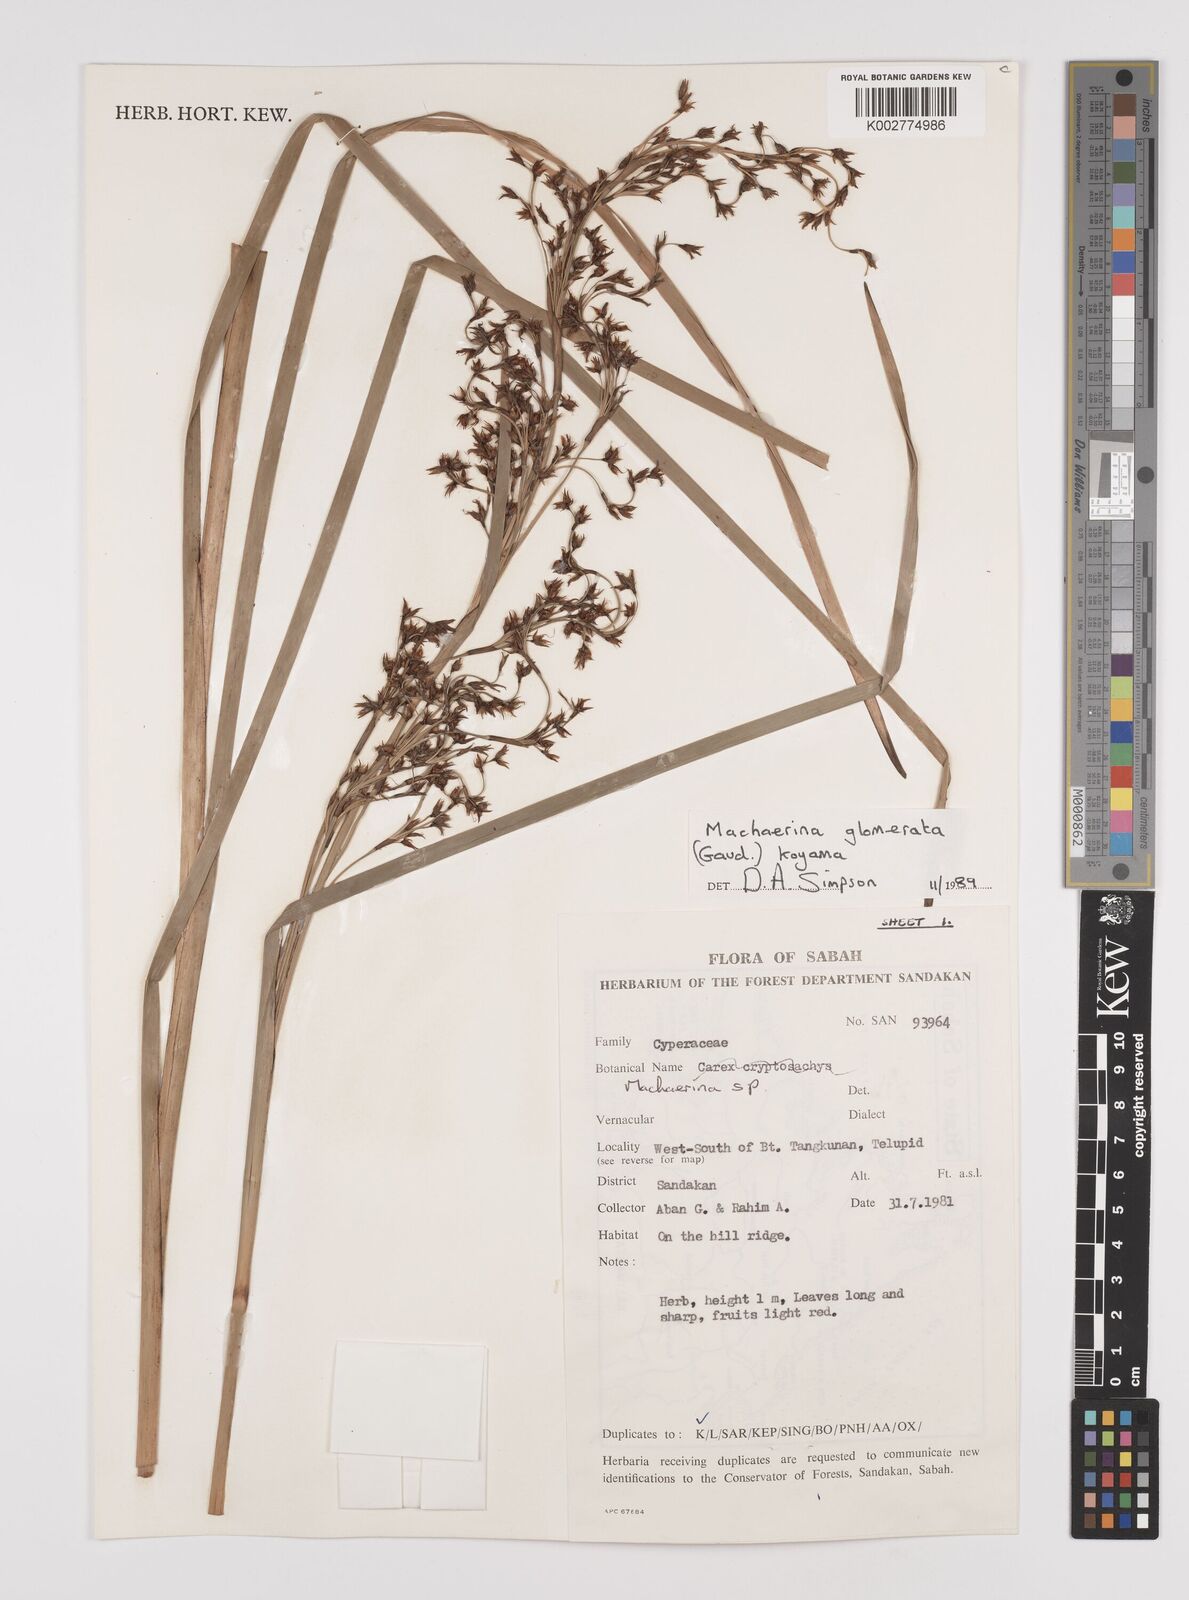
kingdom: Plantae
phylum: Tracheophyta
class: Liliopsida
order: Poales
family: Cyperaceae
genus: Machaerina
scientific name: Machaerina glomerata
